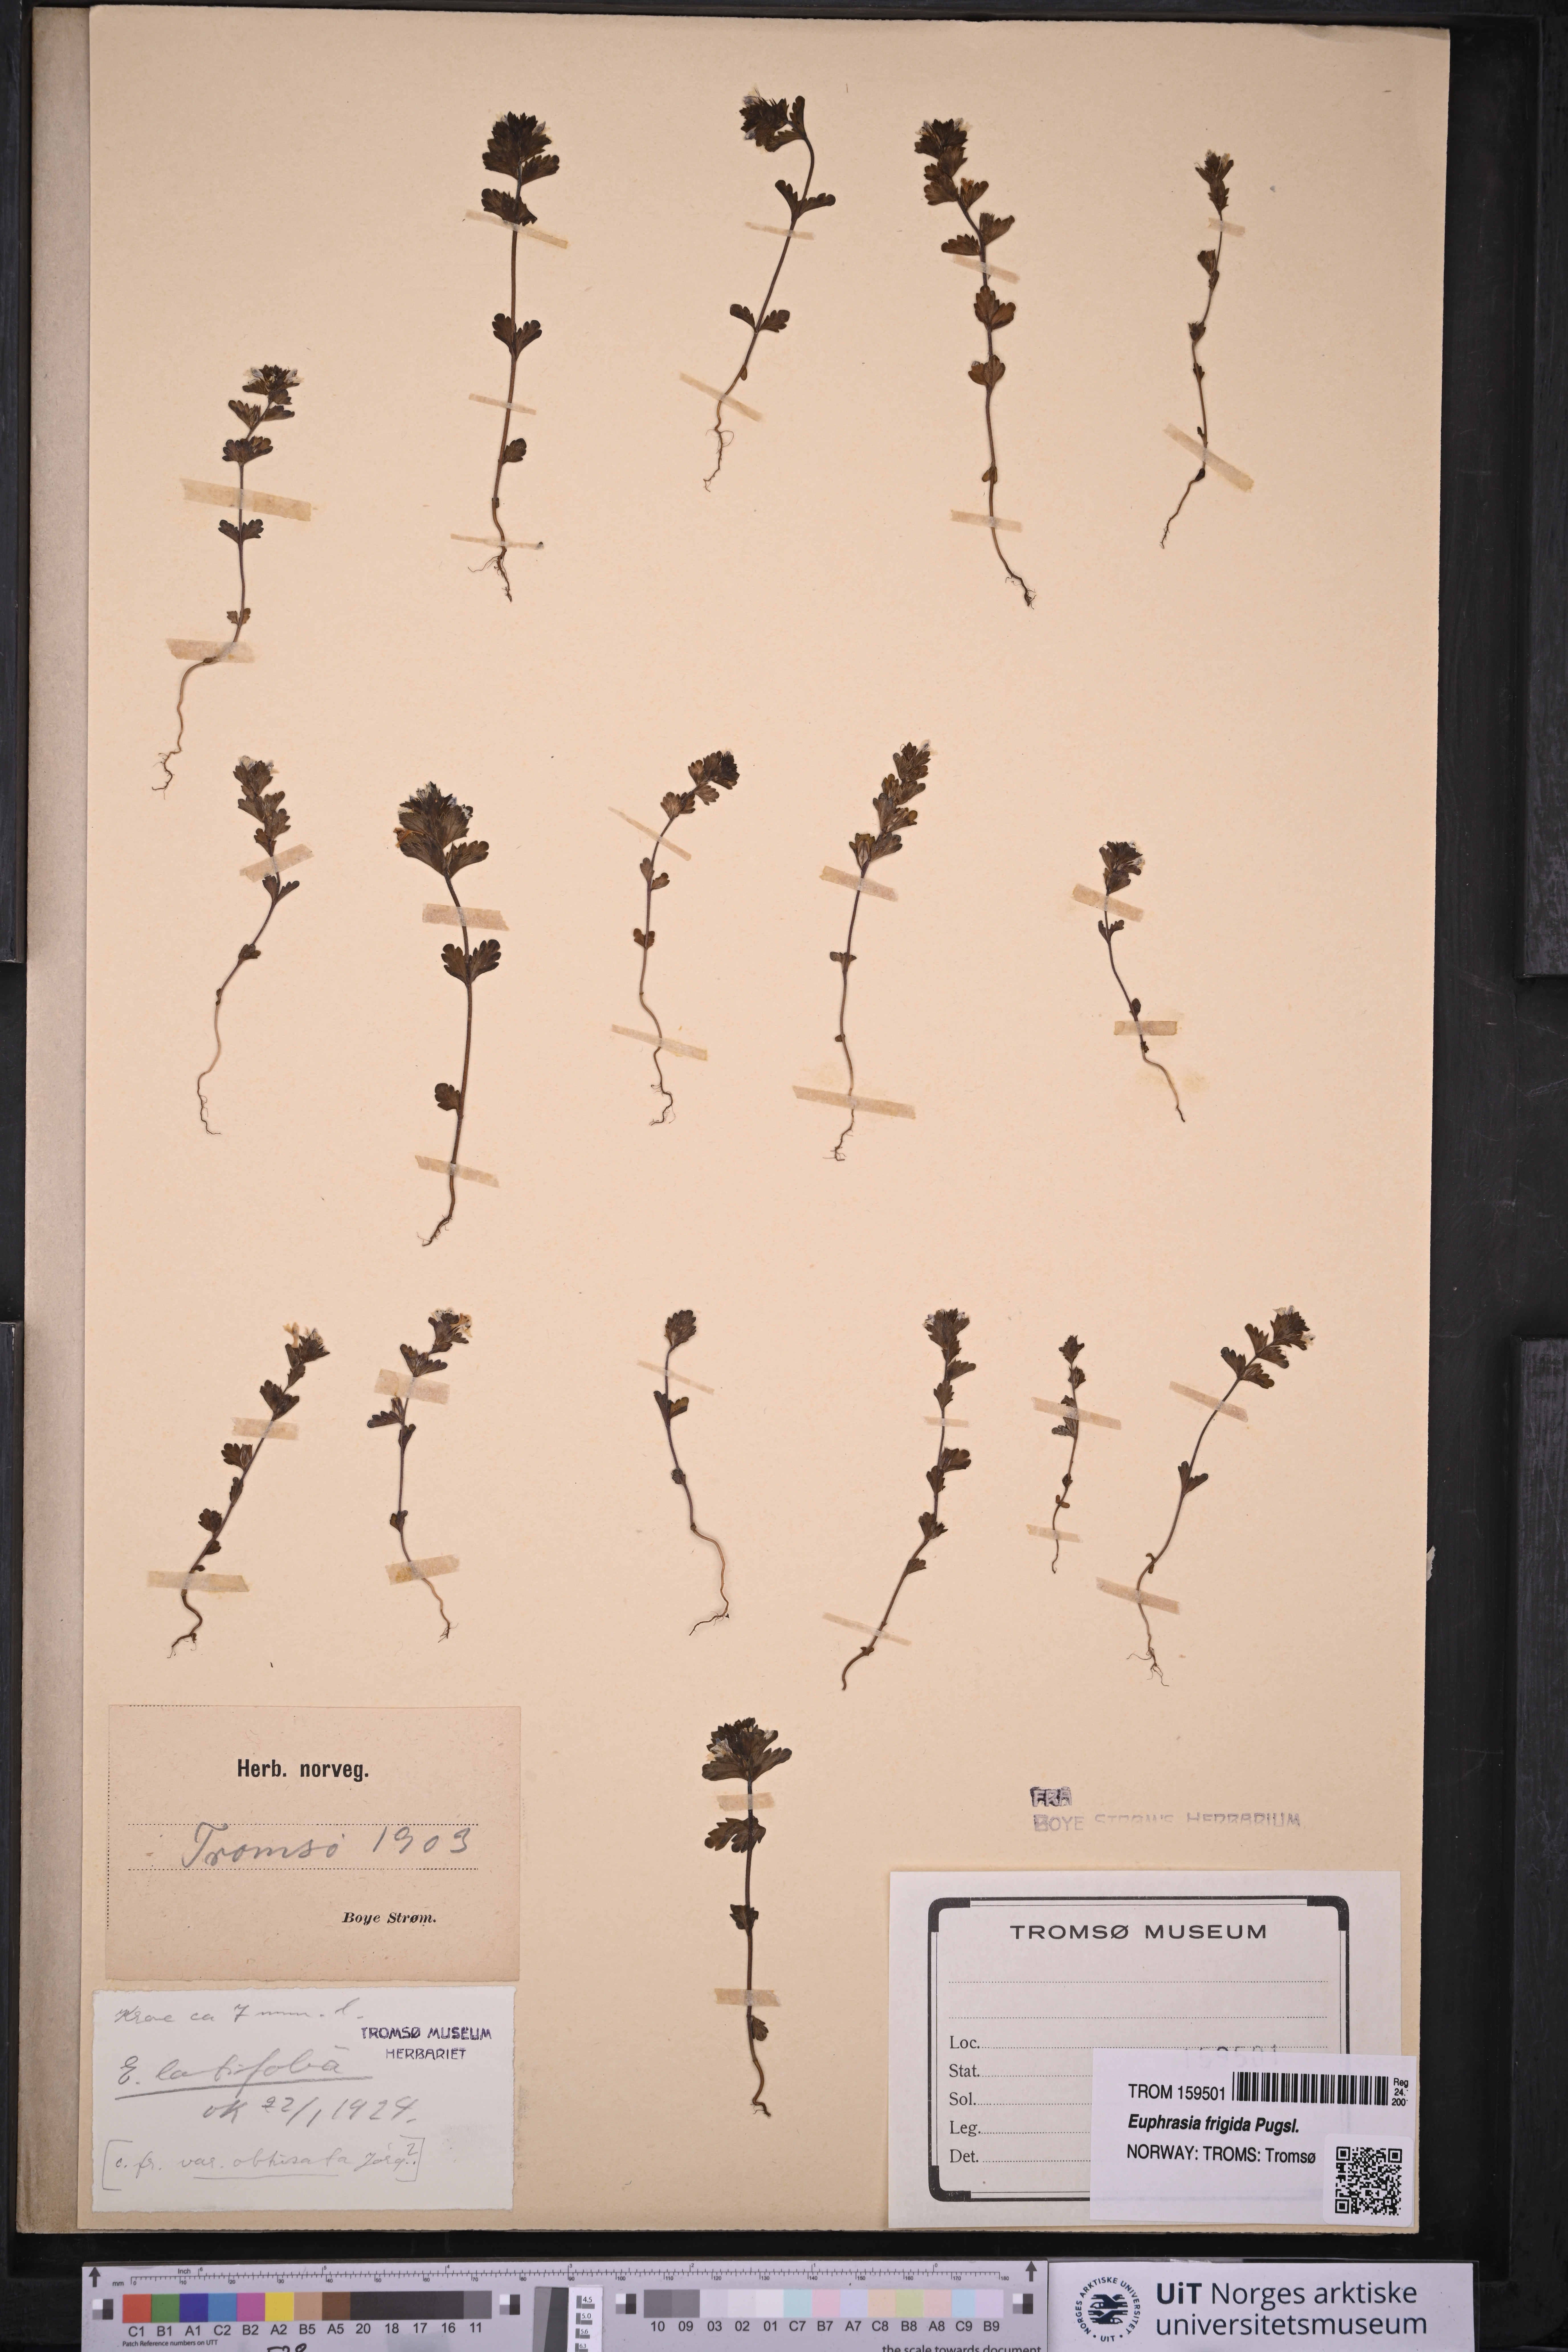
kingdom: Plantae
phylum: Tracheophyta
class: Magnoliopsida
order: Lamiales
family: Orobanchaceae
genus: Euphrasia
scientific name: Euphrasia wettsteinii
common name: Wettstein's eyebright
